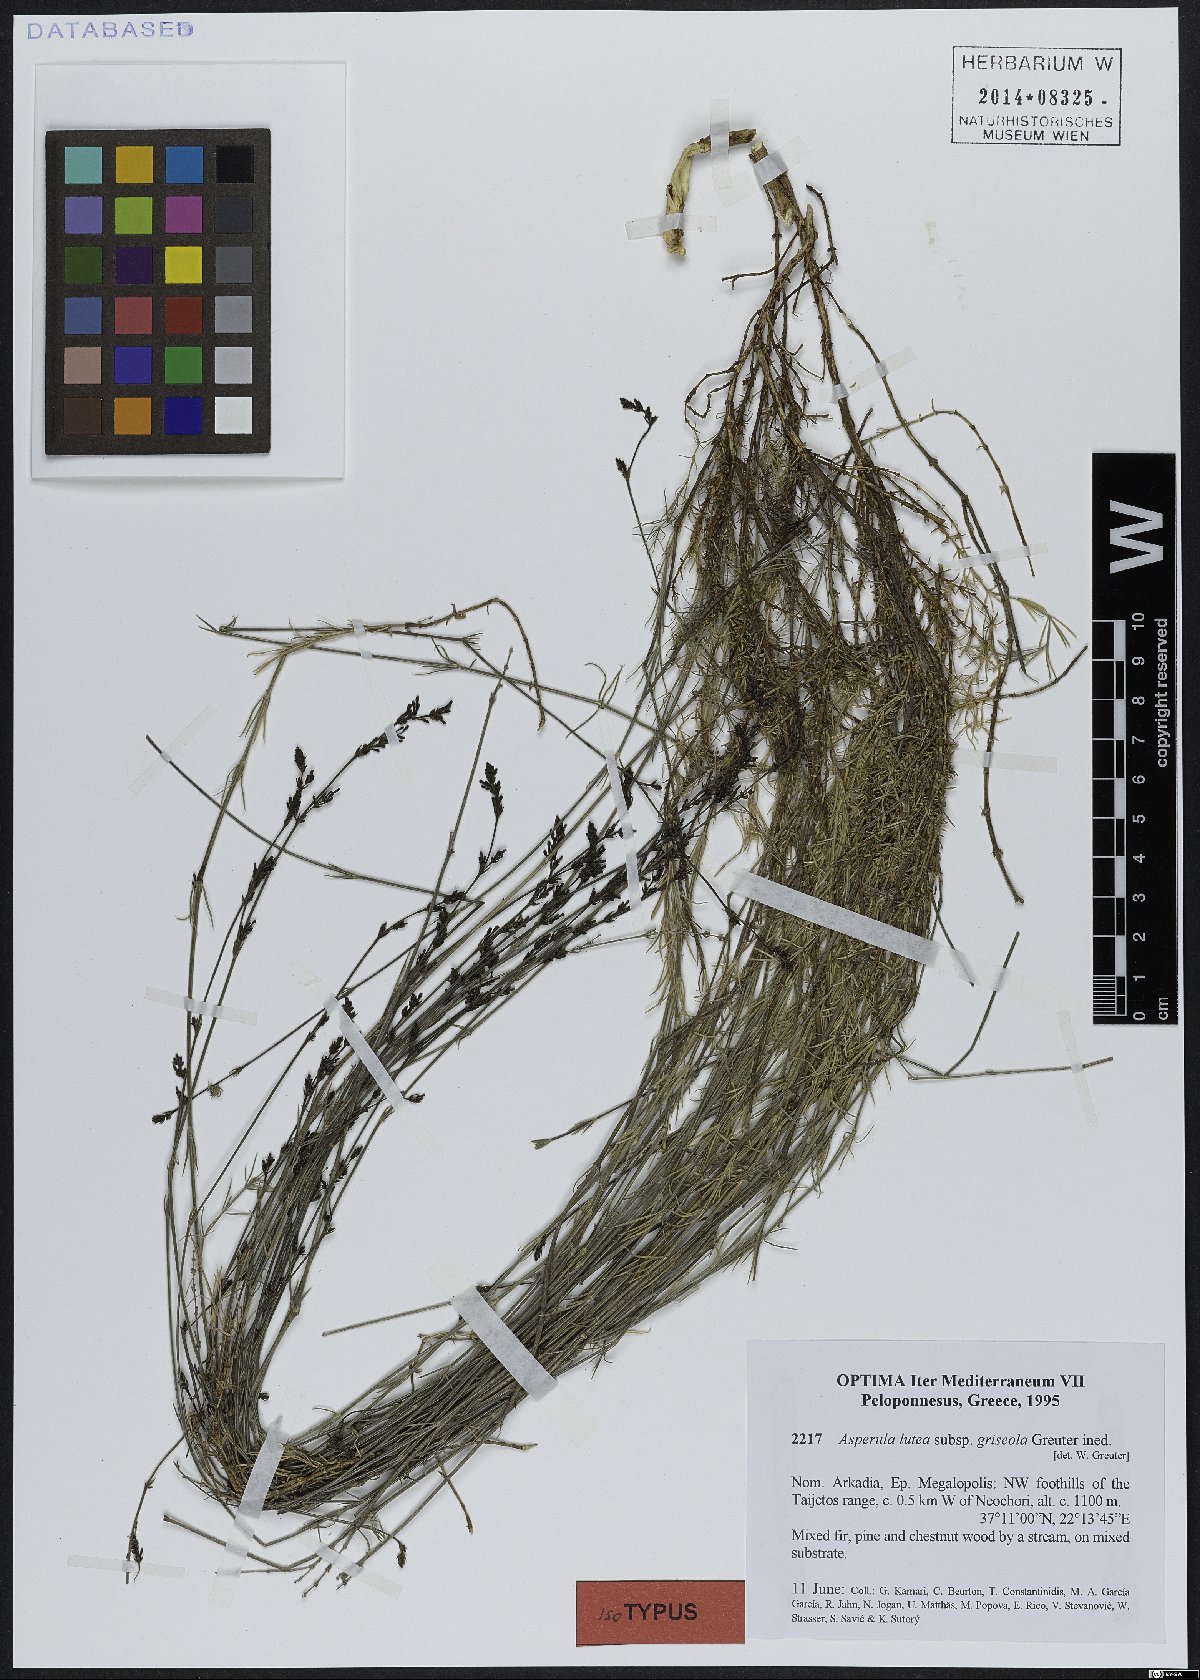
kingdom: Plantae
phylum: Tracheophyta
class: Magnoliopsida
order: Gentianales
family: Rubiaceae
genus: Cynanchica
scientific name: Cynanchica lutea
